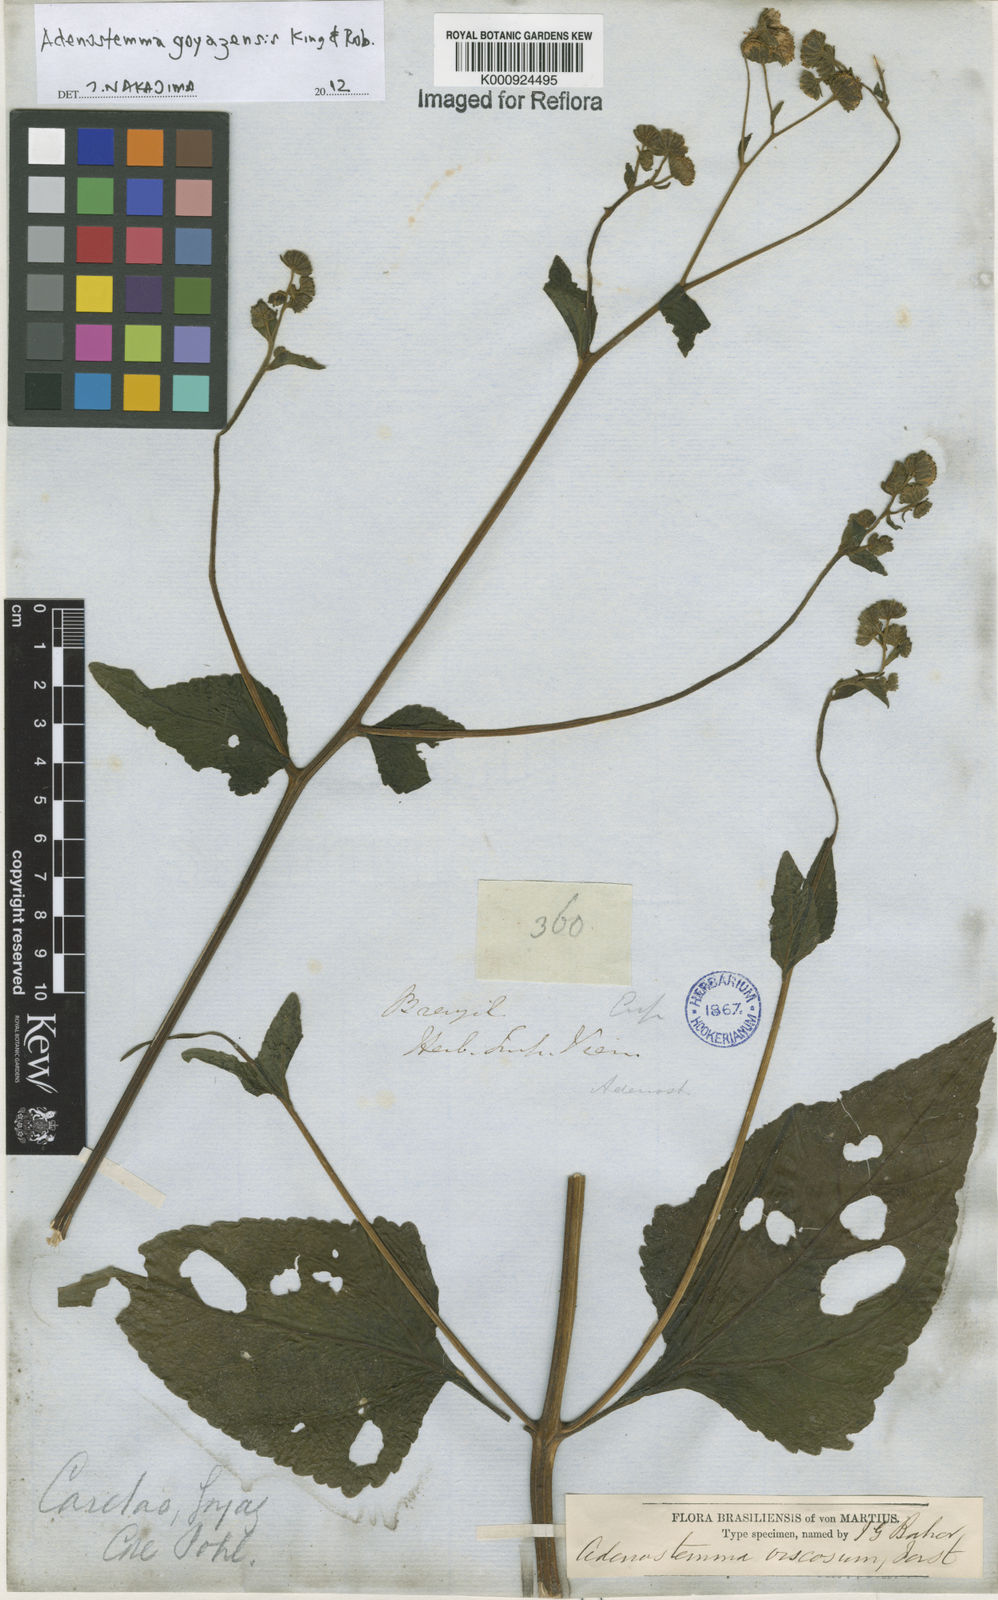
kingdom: Plantae
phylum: Tracheophyta
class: Magnoliopsida
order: Asterales
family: Asteraceae
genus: Adenostemma
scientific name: Adenostemma
